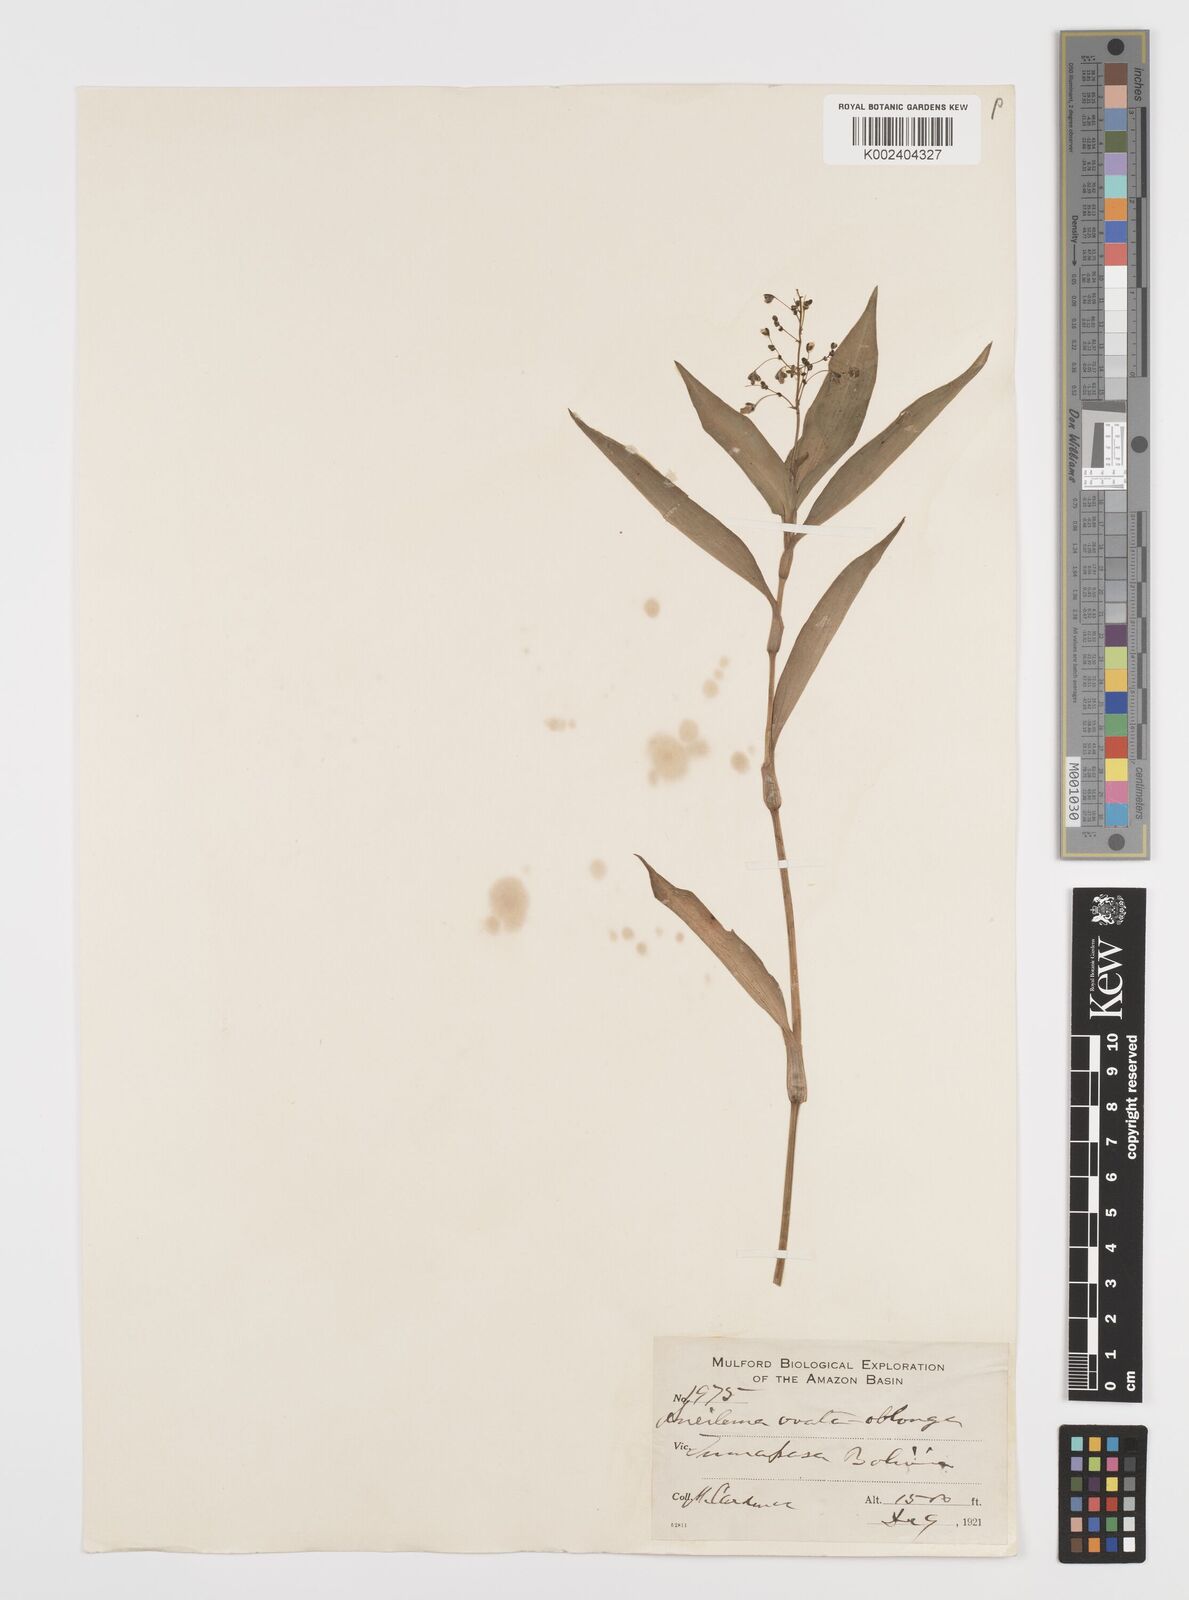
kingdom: Plantae
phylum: Tracheophyta
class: Liliopsida
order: Commelinales
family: Commelinaceae
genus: Aneilema
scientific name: Aneilema umbrosum
